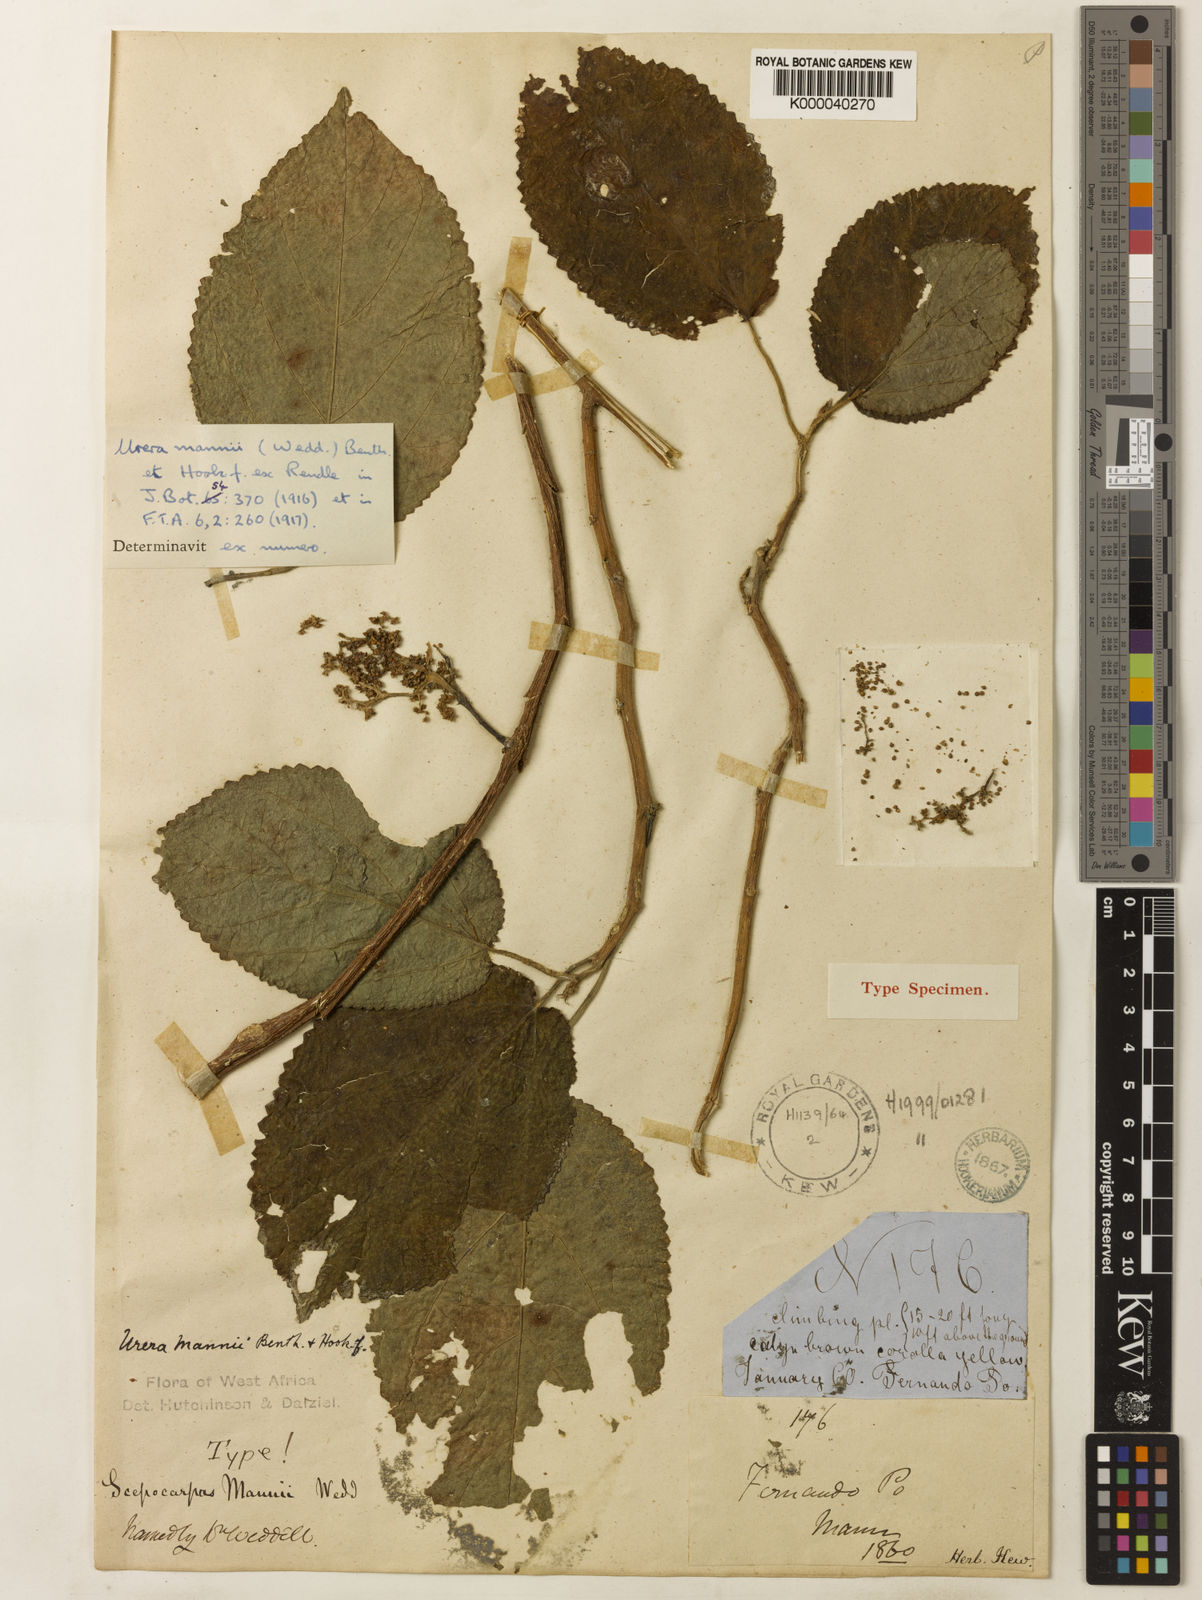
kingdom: Plantae
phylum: Tracheophyta
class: Magnoliopsida
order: Rosales
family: Urticaceae
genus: Scepocarpus
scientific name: Scepocarpus mannii
